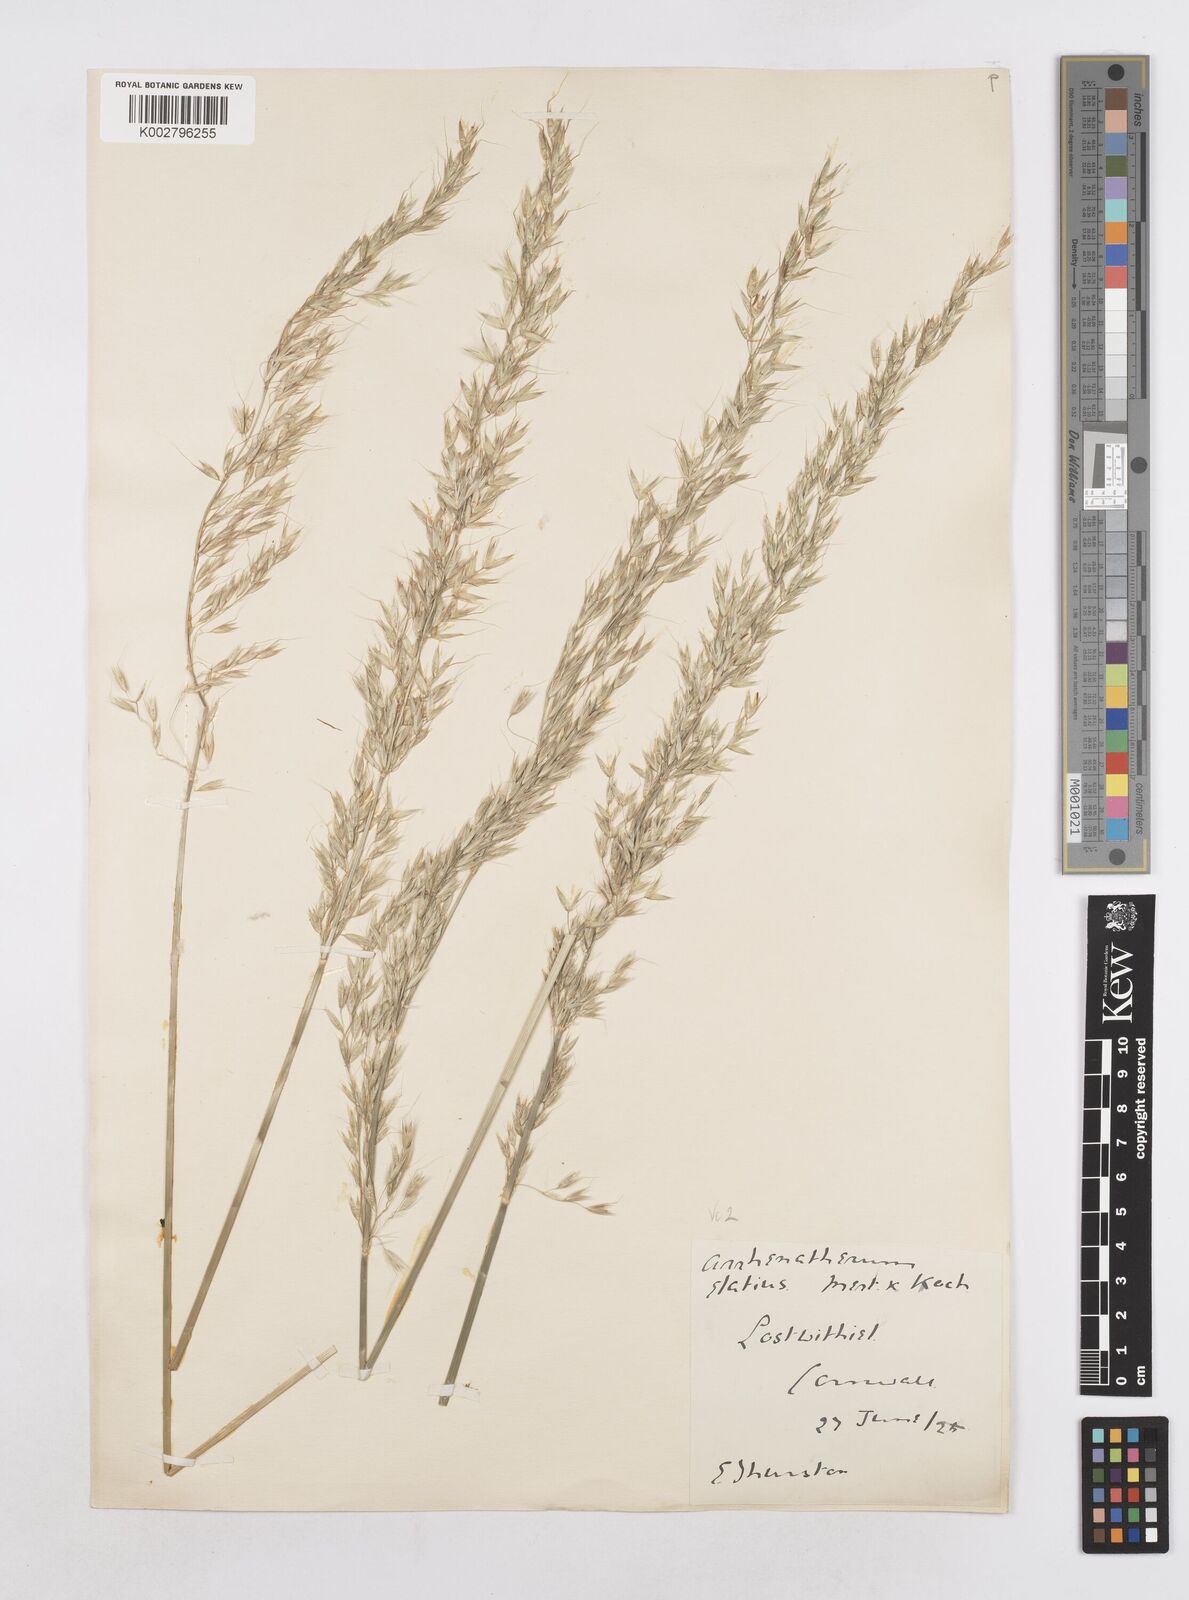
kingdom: Plantae
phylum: Tracheophyta
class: Liliopsida
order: Poales
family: Poaceae
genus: Arrhenatherum
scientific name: Arrhenatherum elatius
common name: Tall oatgrass
